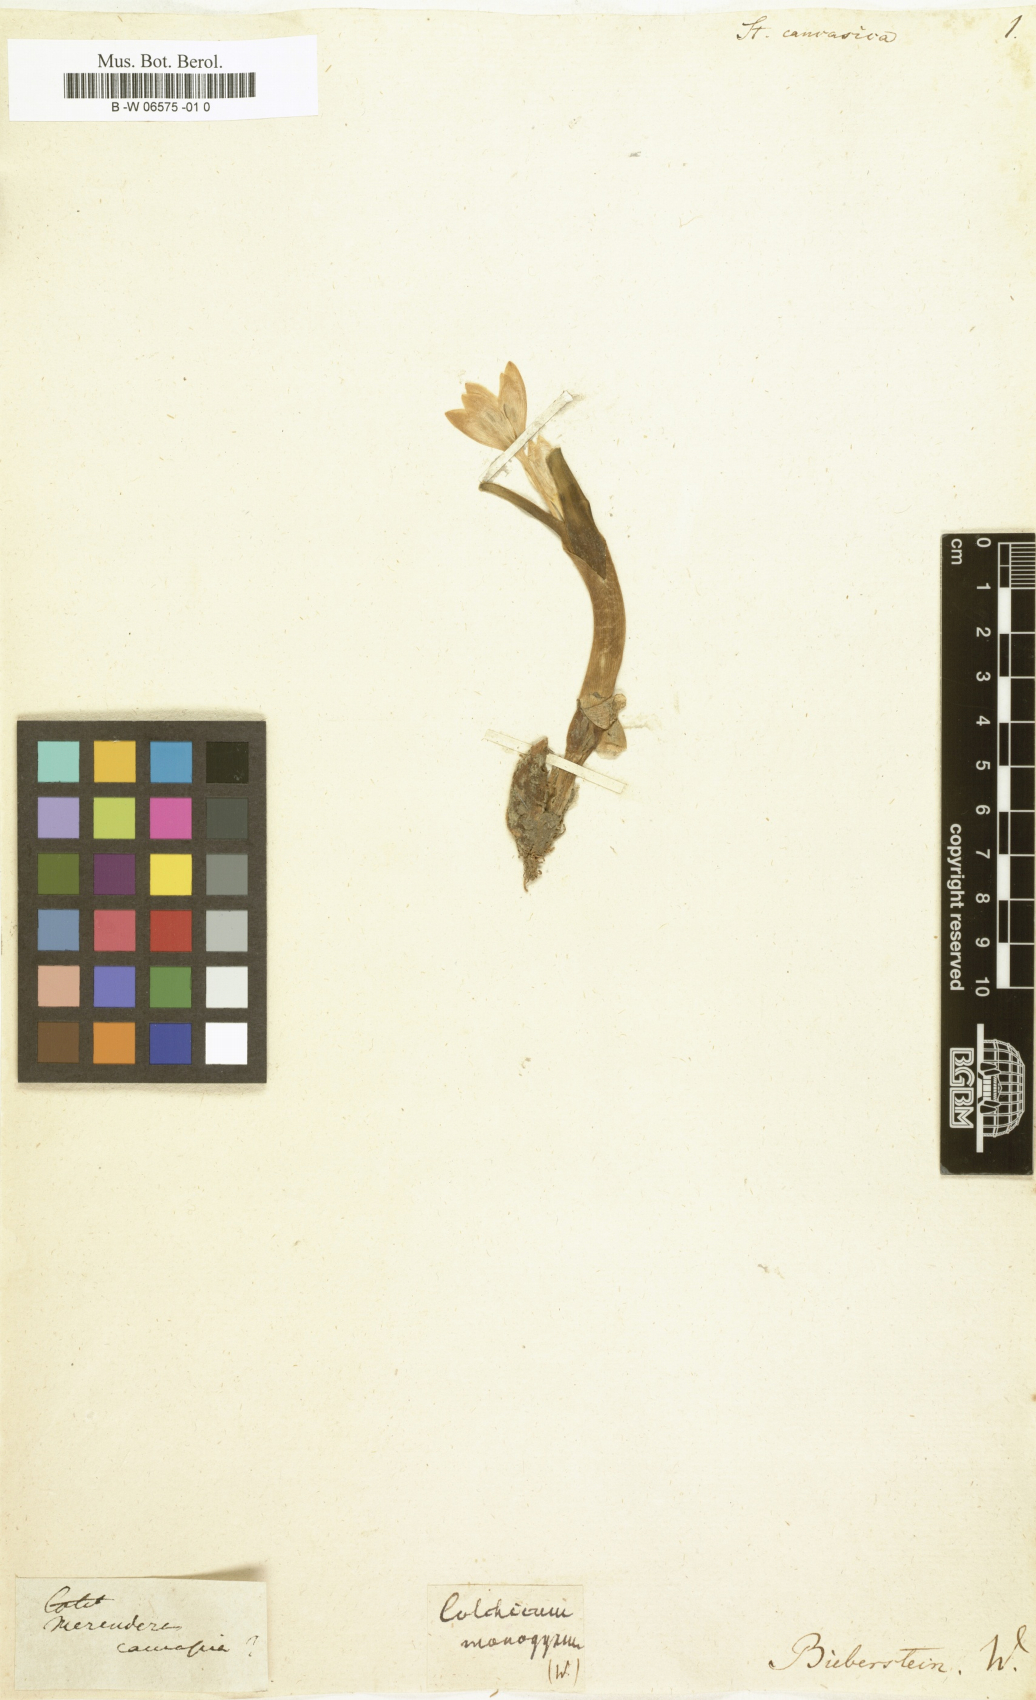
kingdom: Plantae
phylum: Tracheophyta
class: Liliopsida
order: Liliales
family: Colchicaceae
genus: Colchicum
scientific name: Colchicum trigynum
